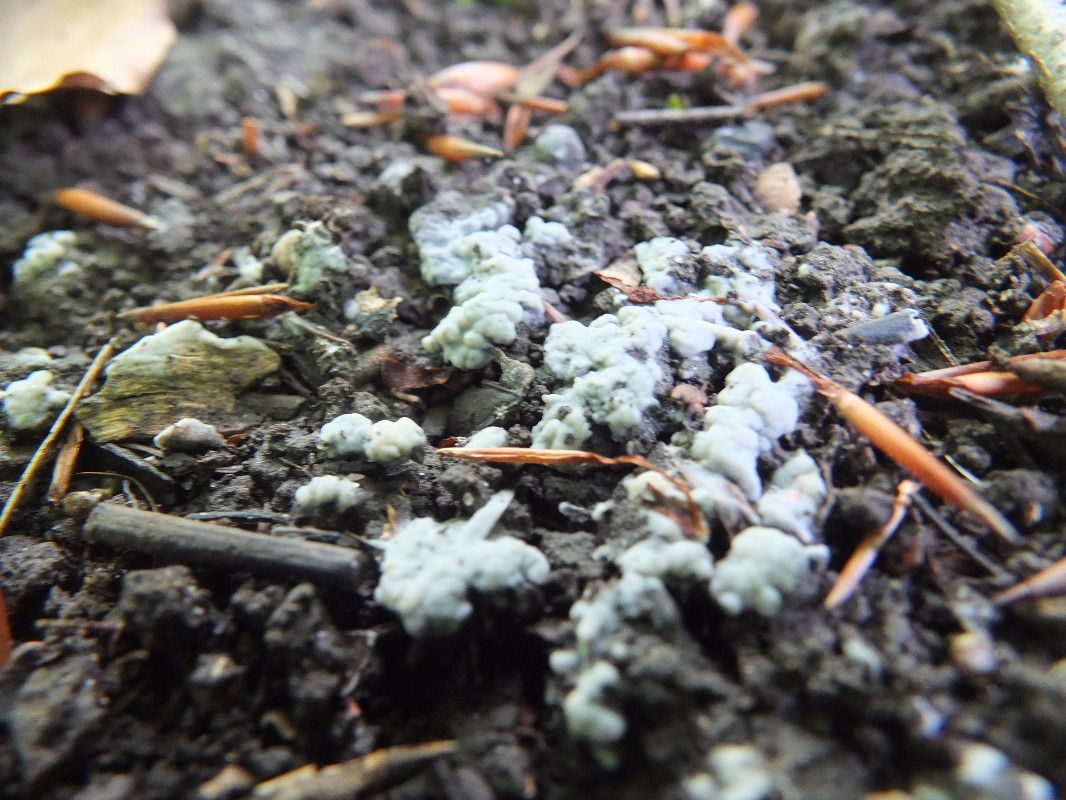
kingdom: Fungi
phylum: Basidiomycota
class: Agaricomycetes
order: Sebacinales
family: Sebacinaceae
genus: Sebacina
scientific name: Sebacina
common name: bævretalg
